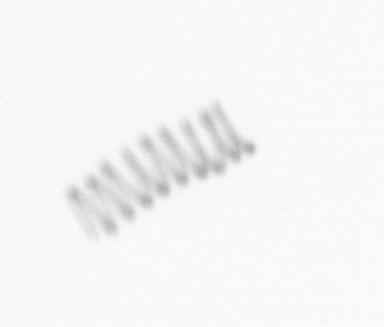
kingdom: Chromista
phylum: Ochrophyta
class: Bacillariophyceae
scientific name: Bacillariophyceae
